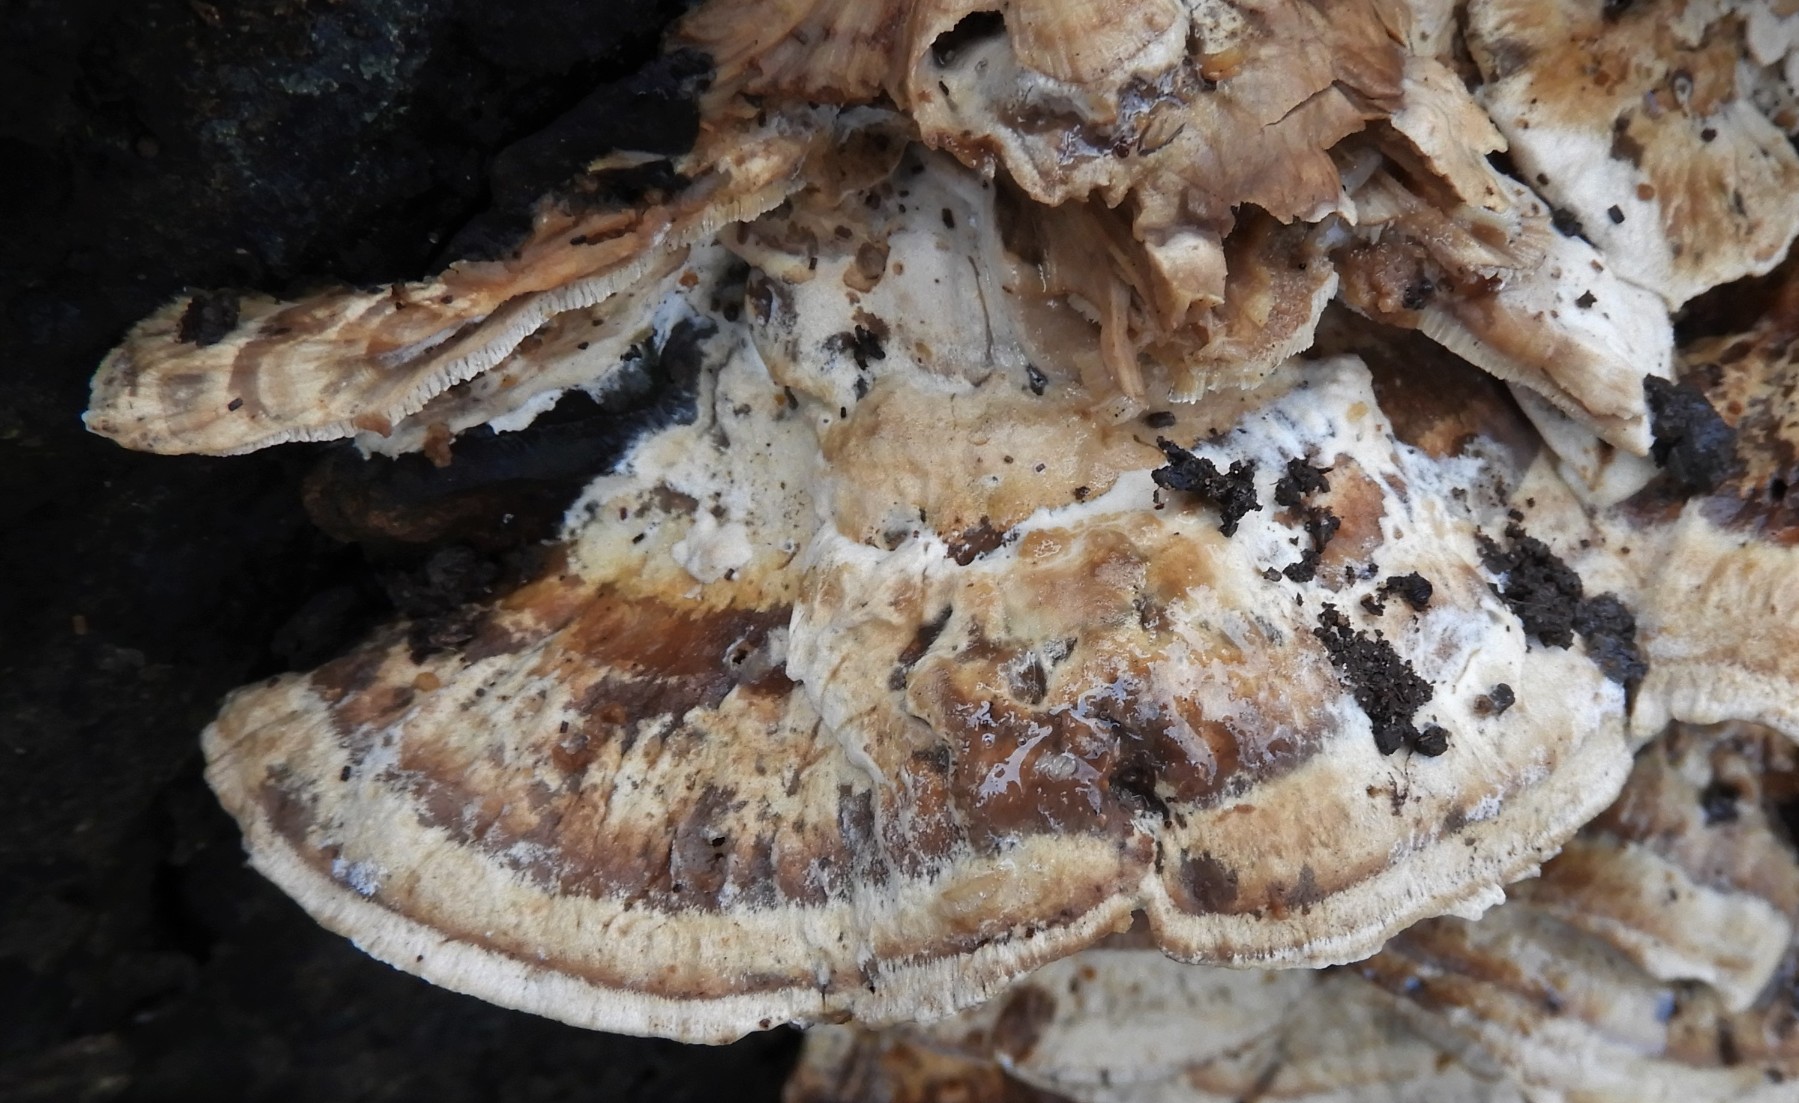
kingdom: Fungi
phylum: Basidiomycota
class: Agaricomycetes
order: Polyporales
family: Phanerochaetaceae
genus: Bjerkandera
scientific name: Bjerkandera fumosa
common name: grågul sodporesvamp
